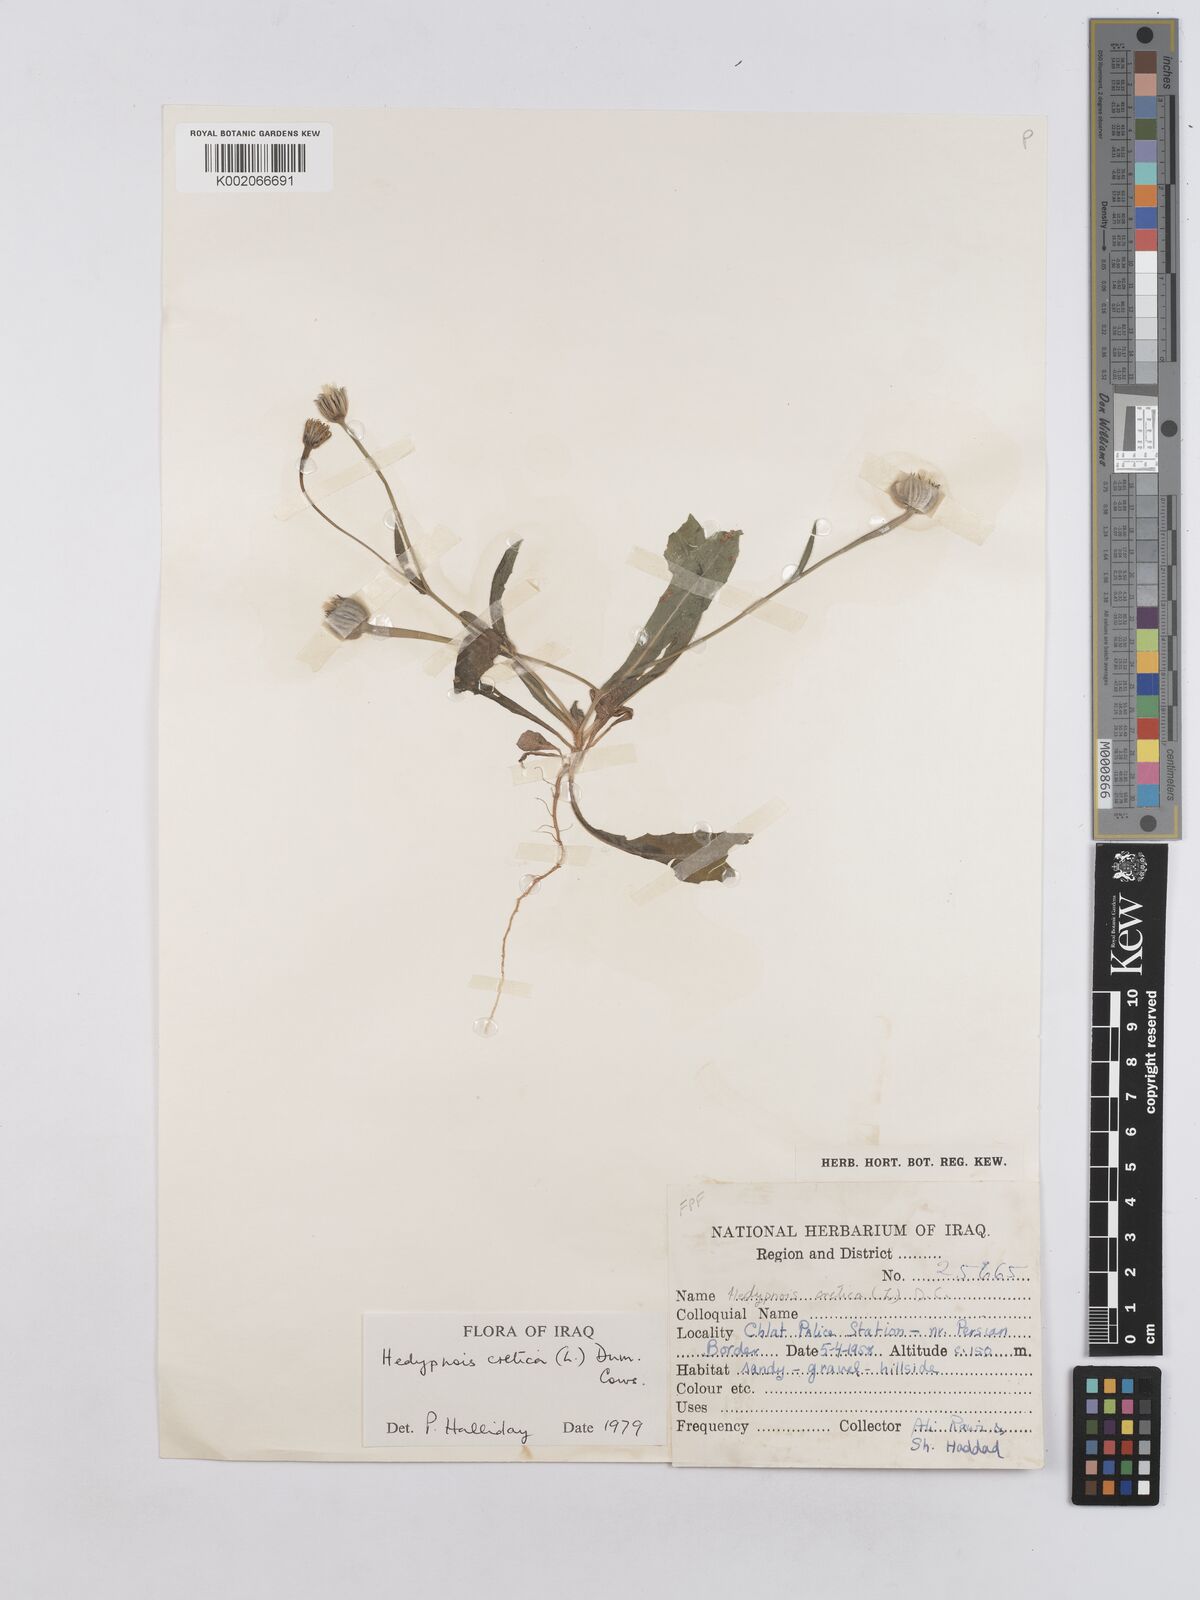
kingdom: Plantae
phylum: Tracheophyta
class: Magnoliopsida
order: Asterales
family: Asteraceae
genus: Hedypnois
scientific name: Hedypnois cretica
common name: Scaly hawkbit
